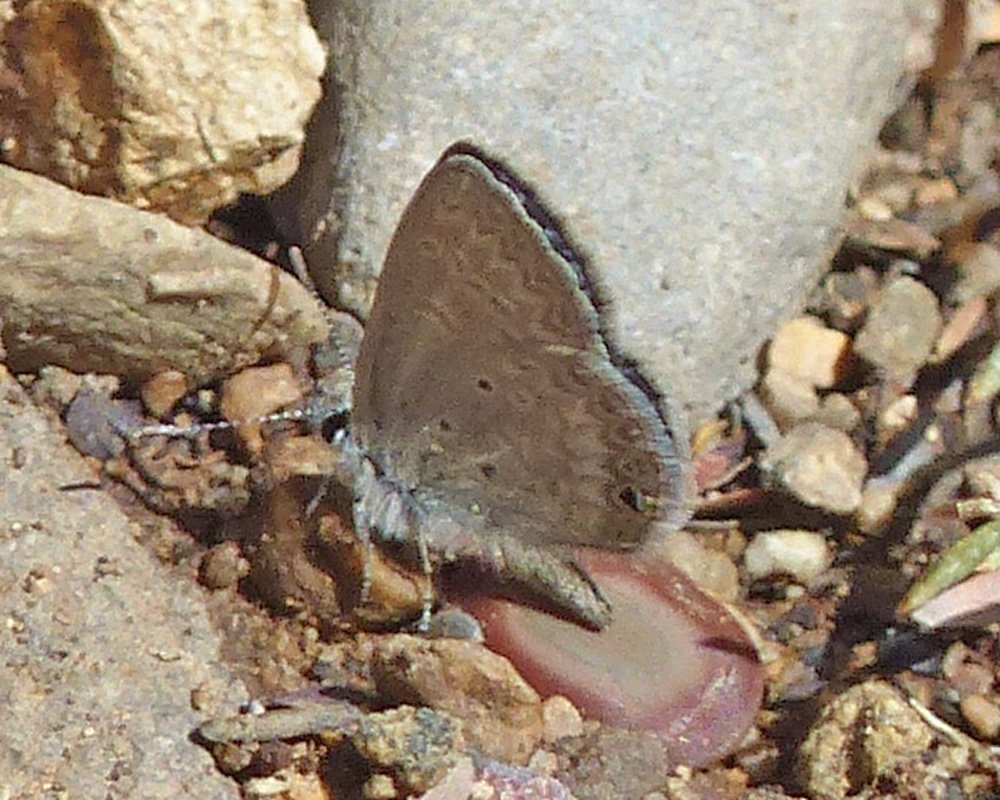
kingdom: Animalia
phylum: Arthropoda
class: Insecta
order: Lepidoptera
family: Lycaenidae
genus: Hemiargus
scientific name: Hemiargus ceraunus
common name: Ceraunus Blue
